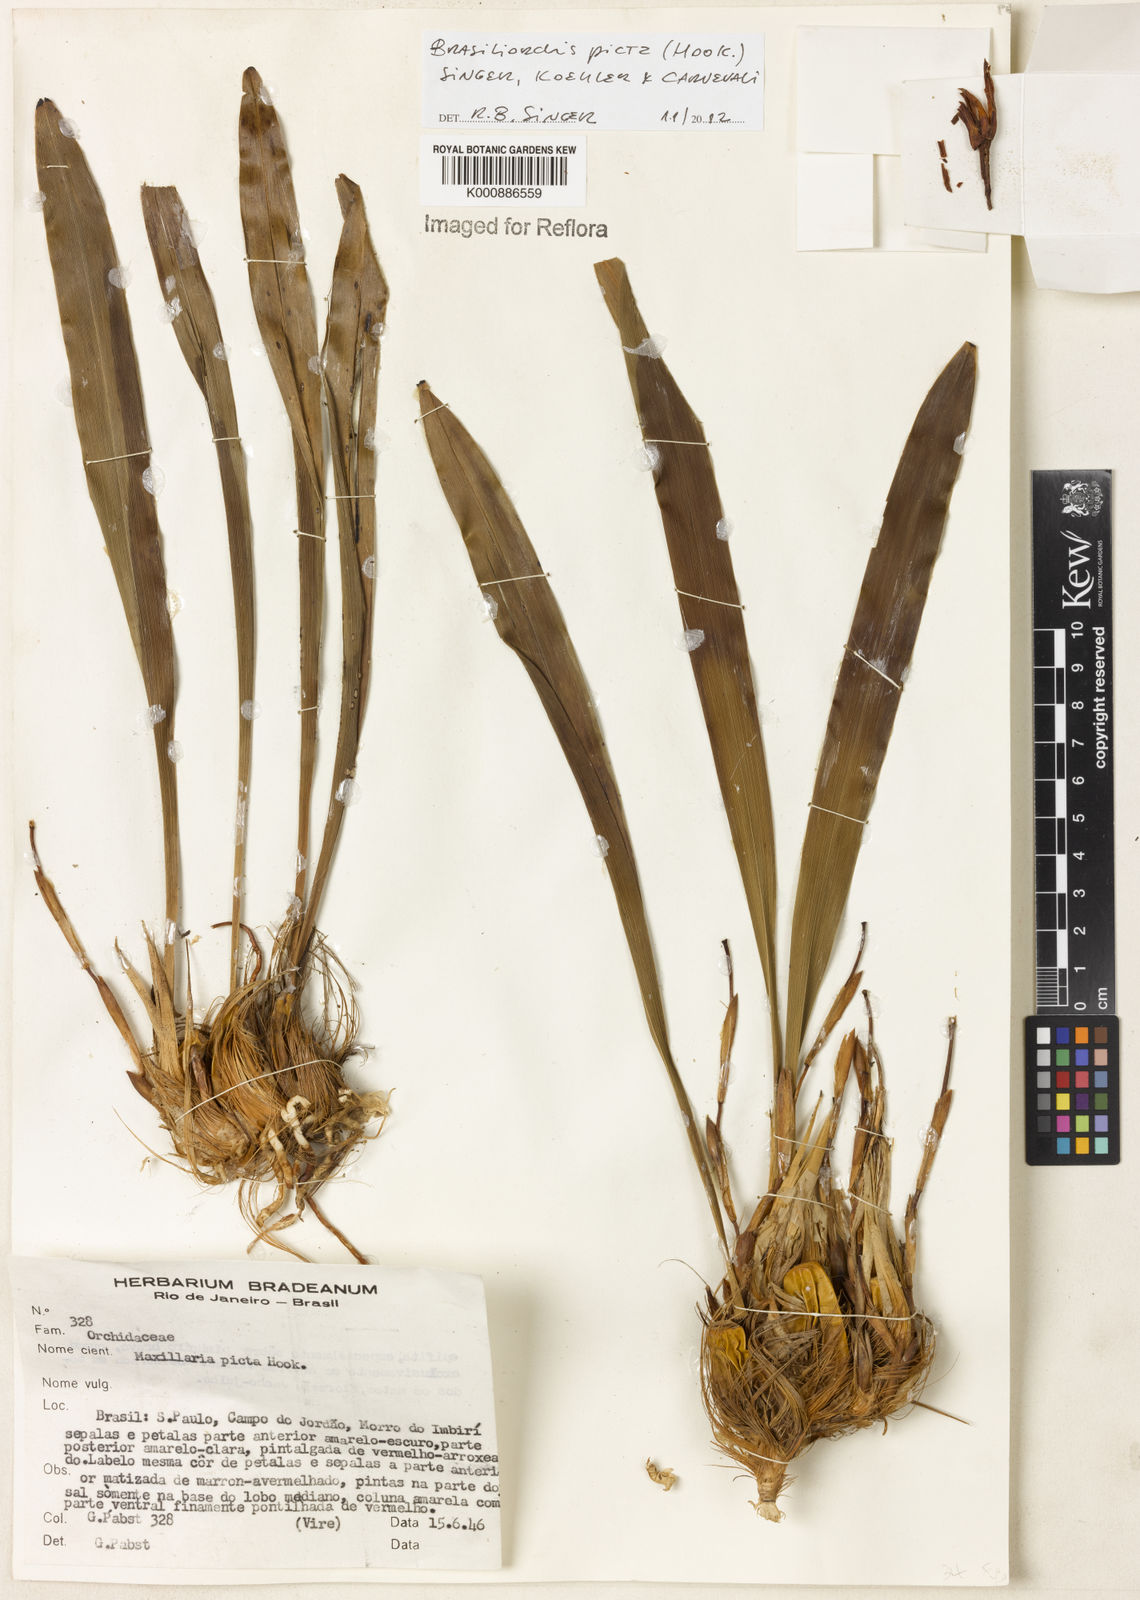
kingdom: Plantae
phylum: Tracheophyta
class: Liliopsida
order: Asparagales
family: Orchidaceae
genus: Maxillaria
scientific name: Maxillaria
